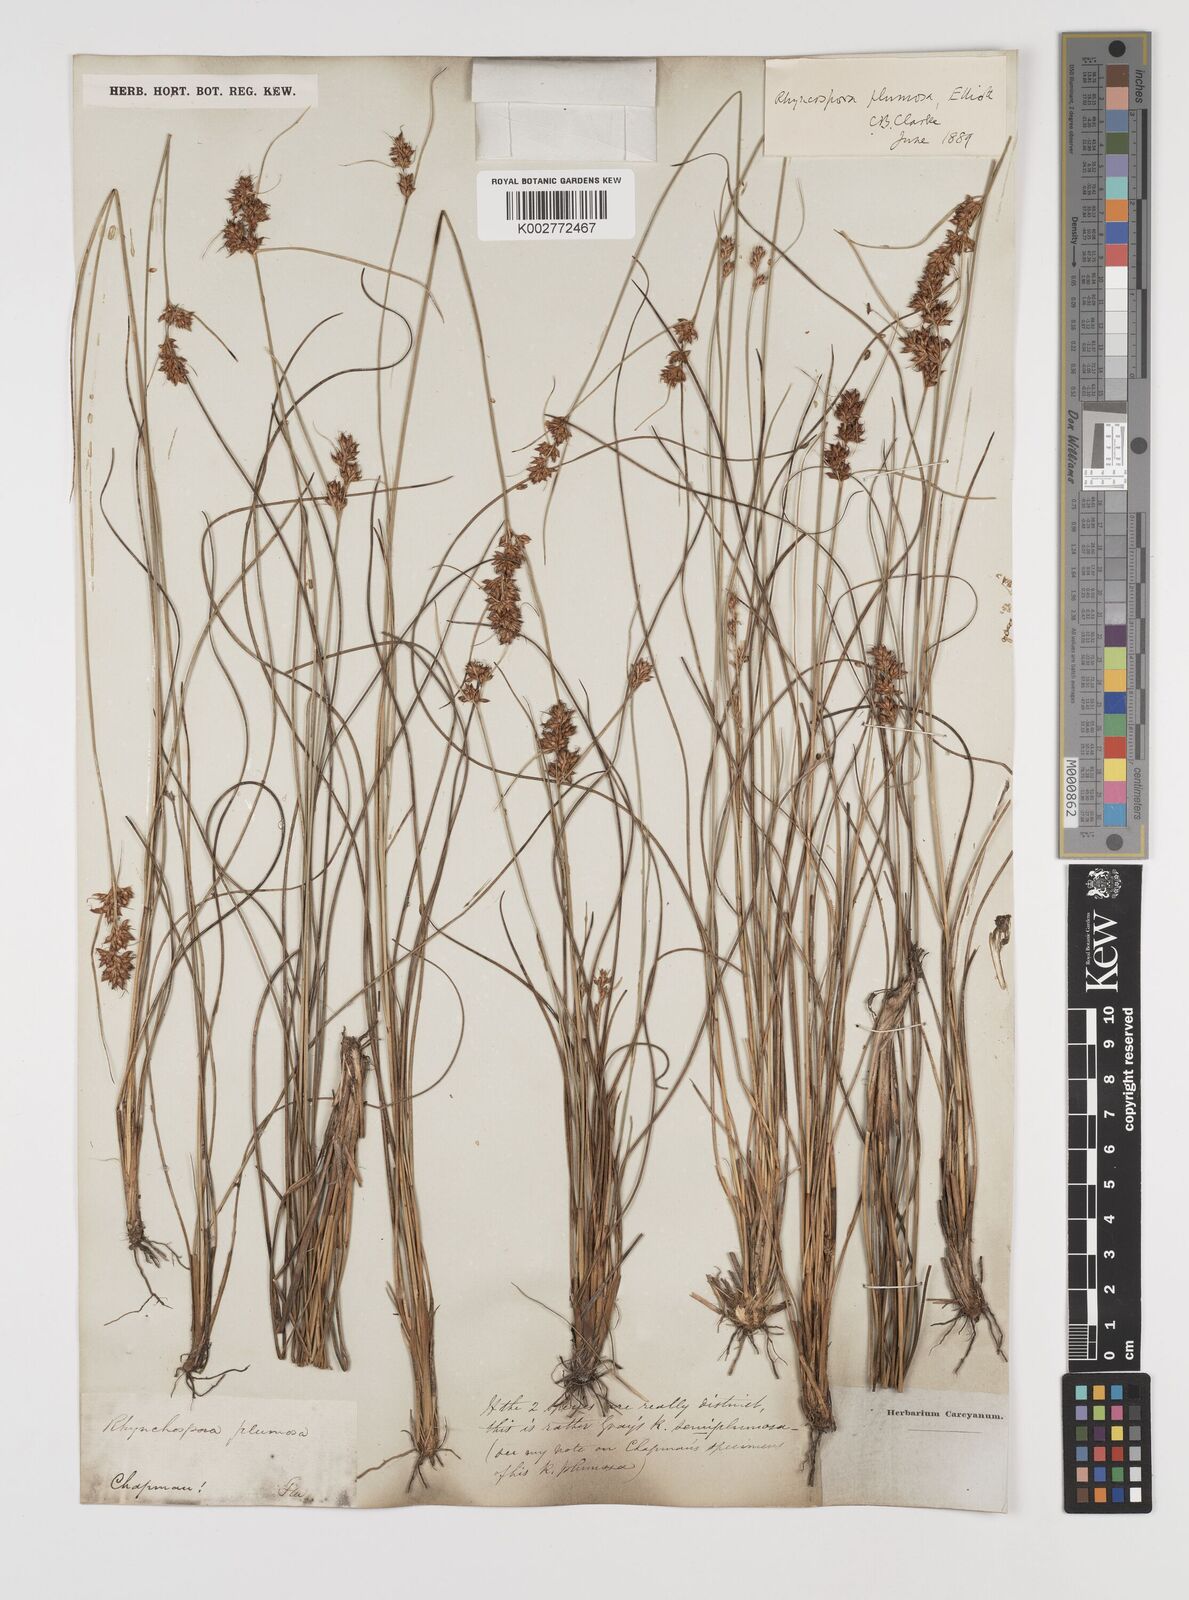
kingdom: Plantae
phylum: Tracheophyta
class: Liliopsida
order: Poales
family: Cyperaceae
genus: Rhynchospora
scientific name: Rhynchospora plumosa
